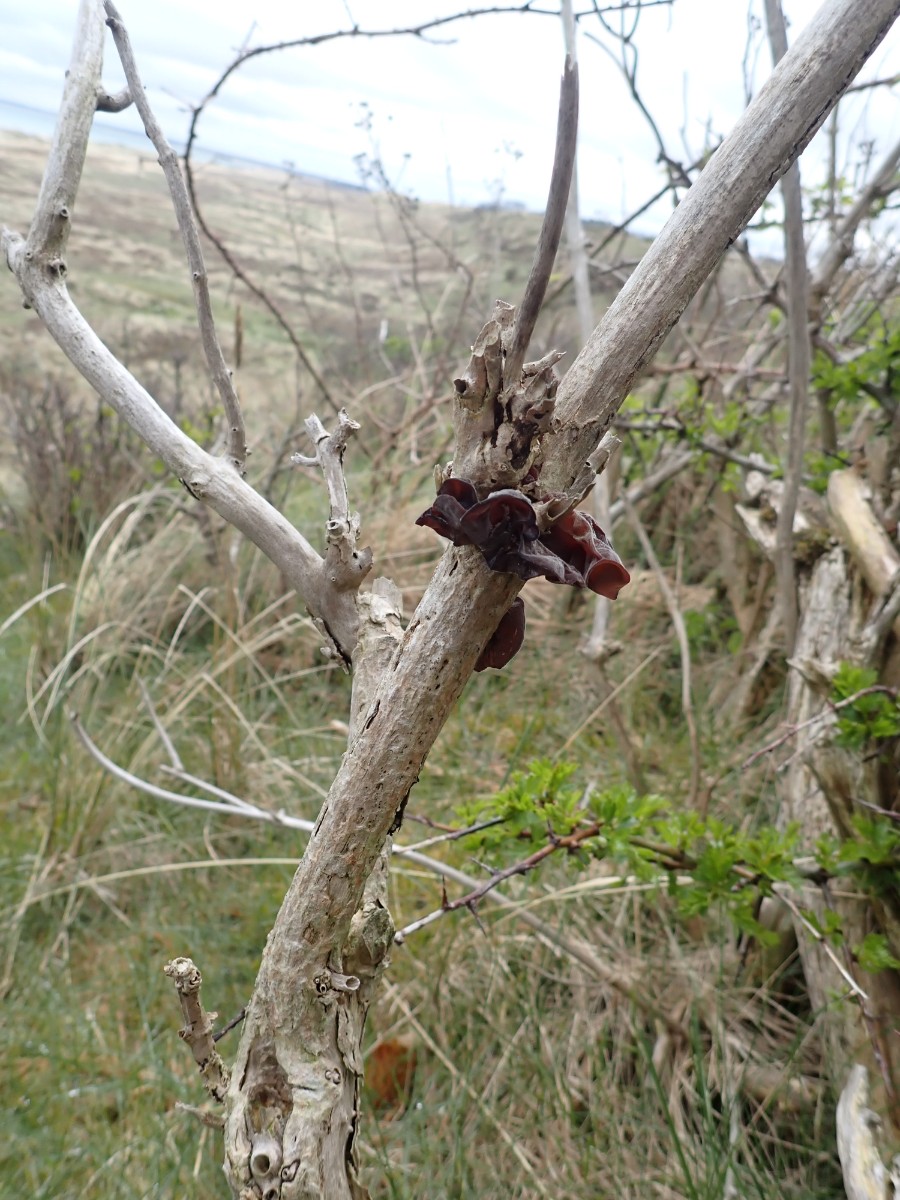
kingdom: Fungi
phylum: Basidiomycota
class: Agaricomycetes
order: Auriculariales
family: Auriculariaceae
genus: Auricularia
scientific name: Auricularia auricula-judae
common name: almindelig judasøre
